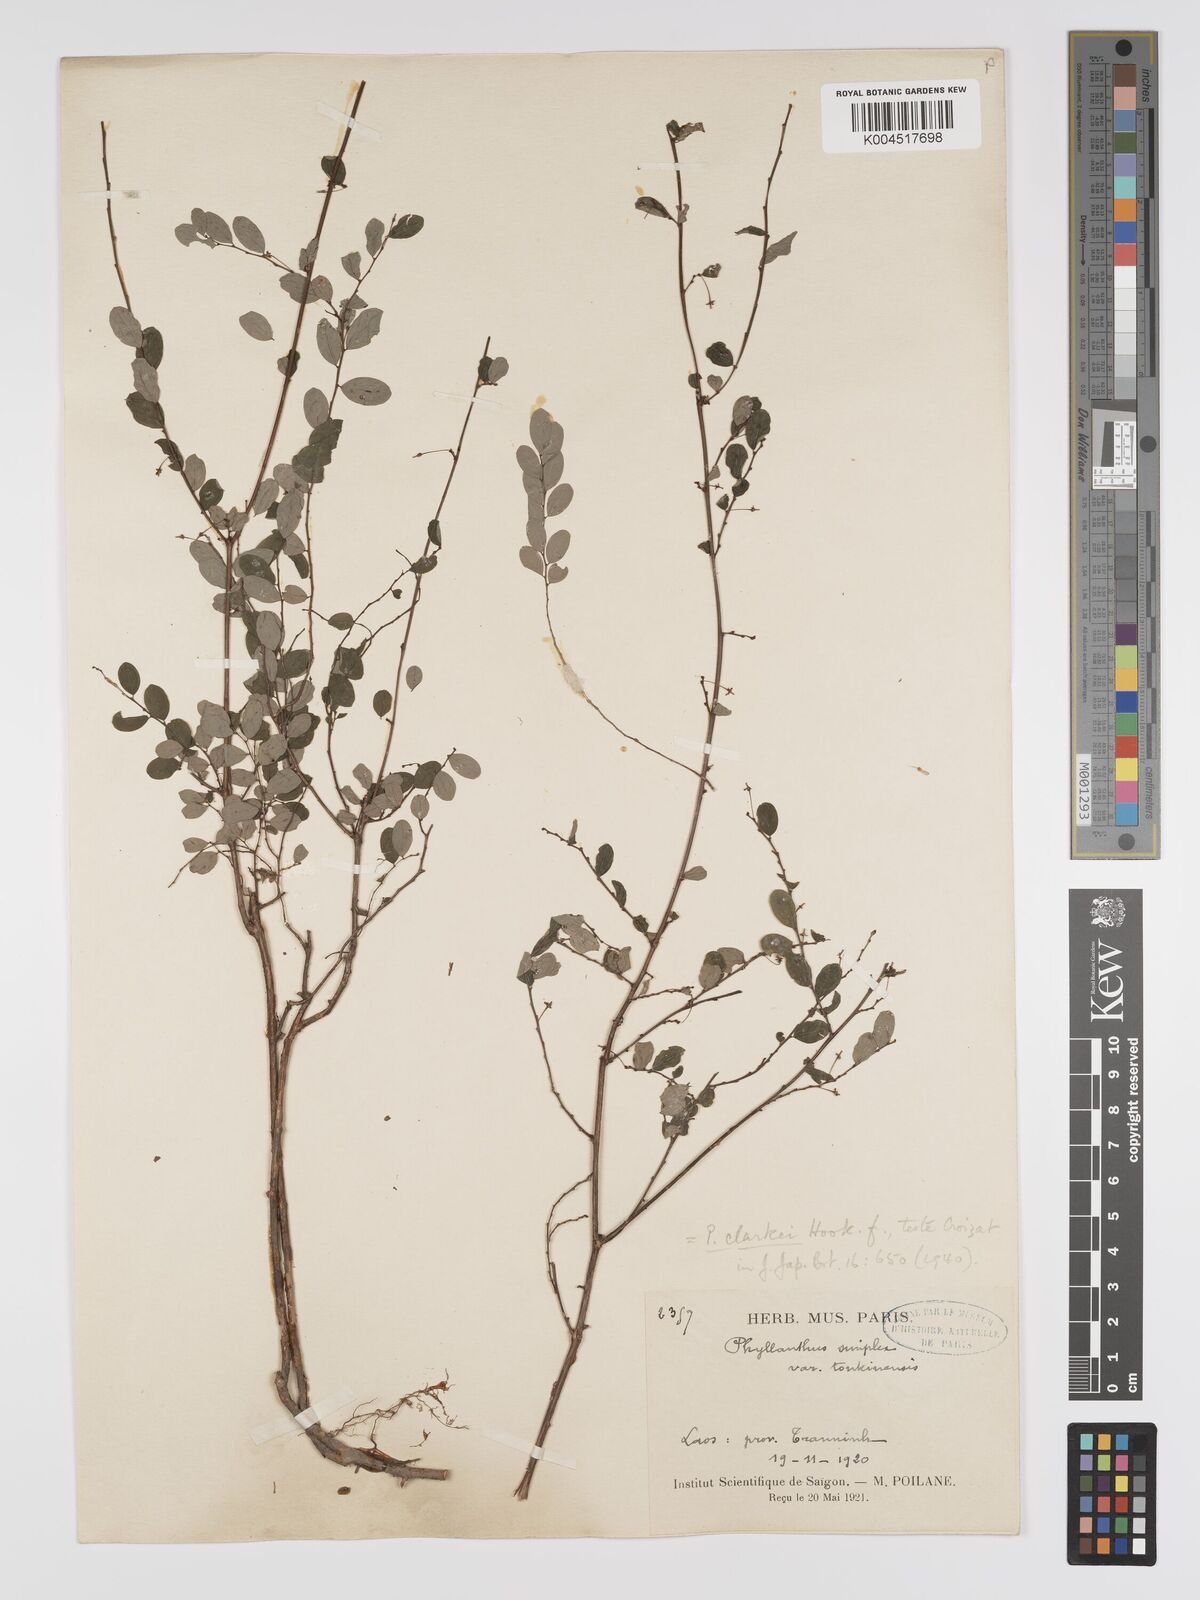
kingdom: Plantae
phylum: Tracheophyta
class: Magnoliopsida
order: Malpighiales
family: Phyllanthaceae
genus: Phyllanthus
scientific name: Phyllanthus clarkei
